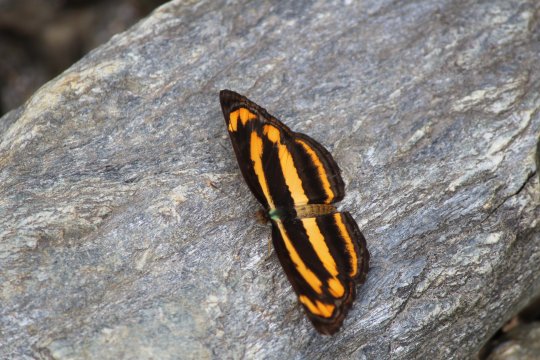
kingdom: Animalia
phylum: Arthropoda
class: Insecta
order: Lepidoptera
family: Nymphalidae
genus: Neptis
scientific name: Neptis miah
